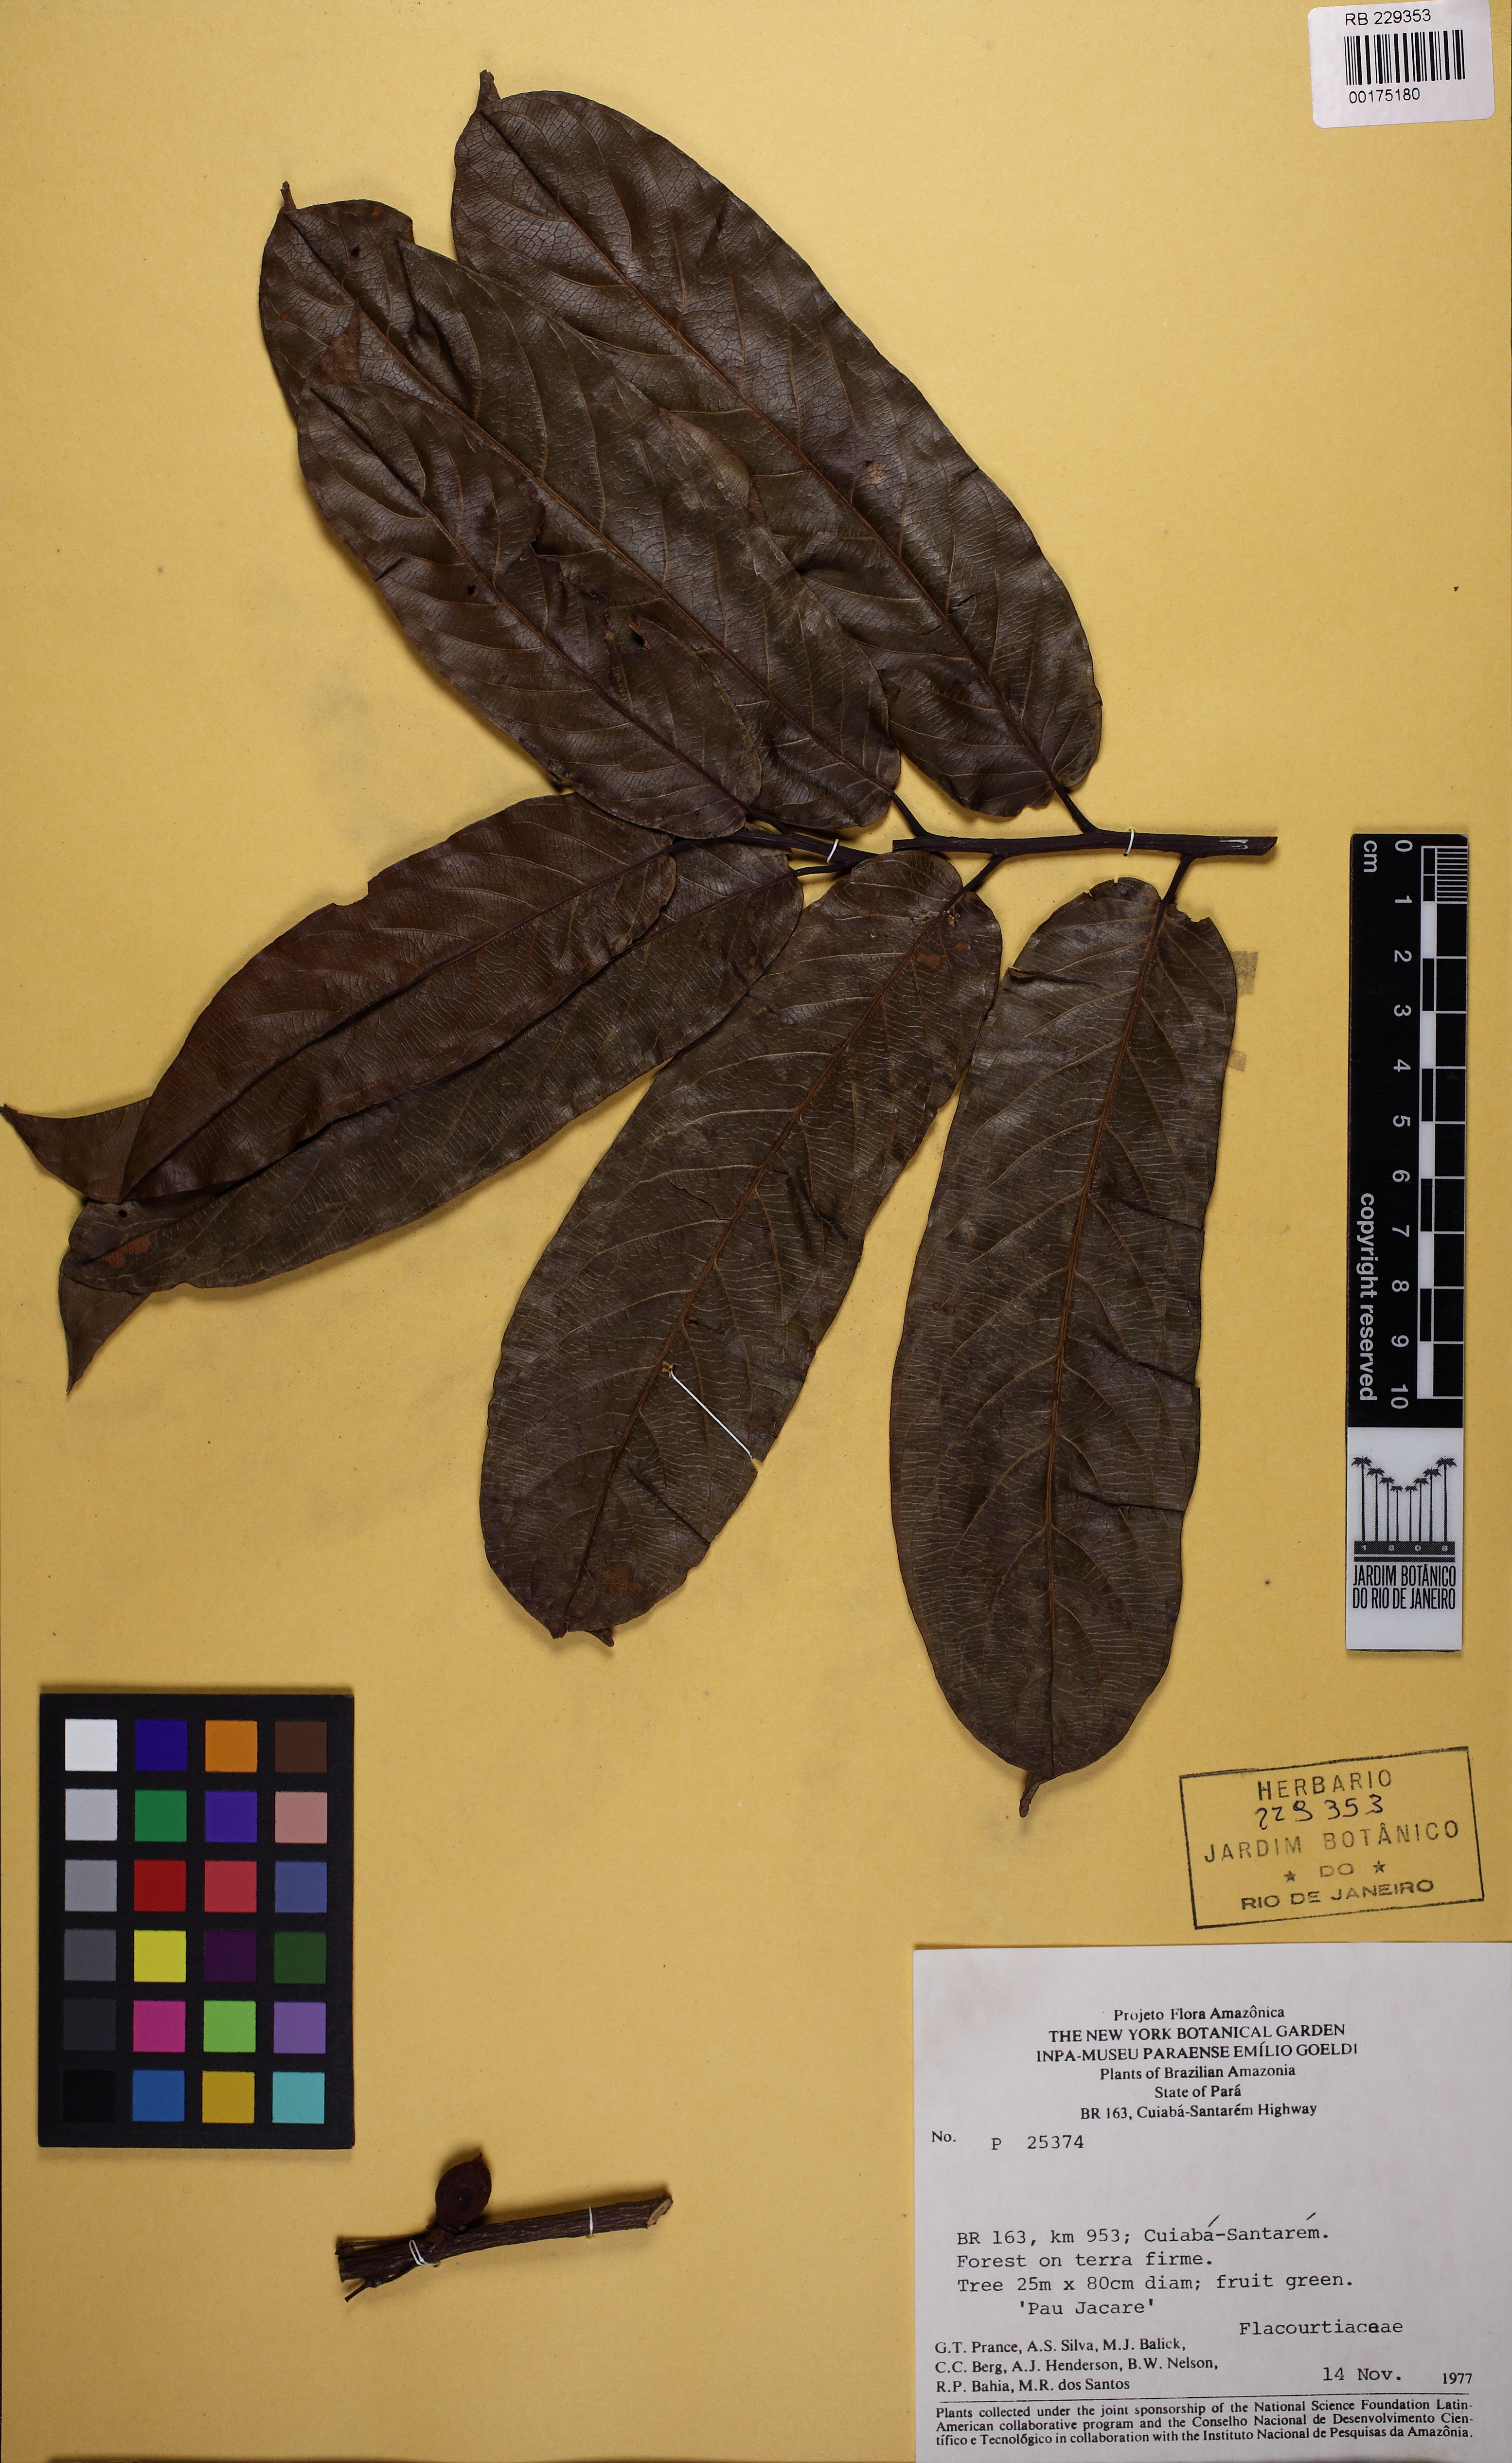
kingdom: Plantae
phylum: Tracheophyta
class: Magnoliopsida
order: Malpighiales
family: Salicaceae
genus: Casearia
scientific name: Casearia bicolor
